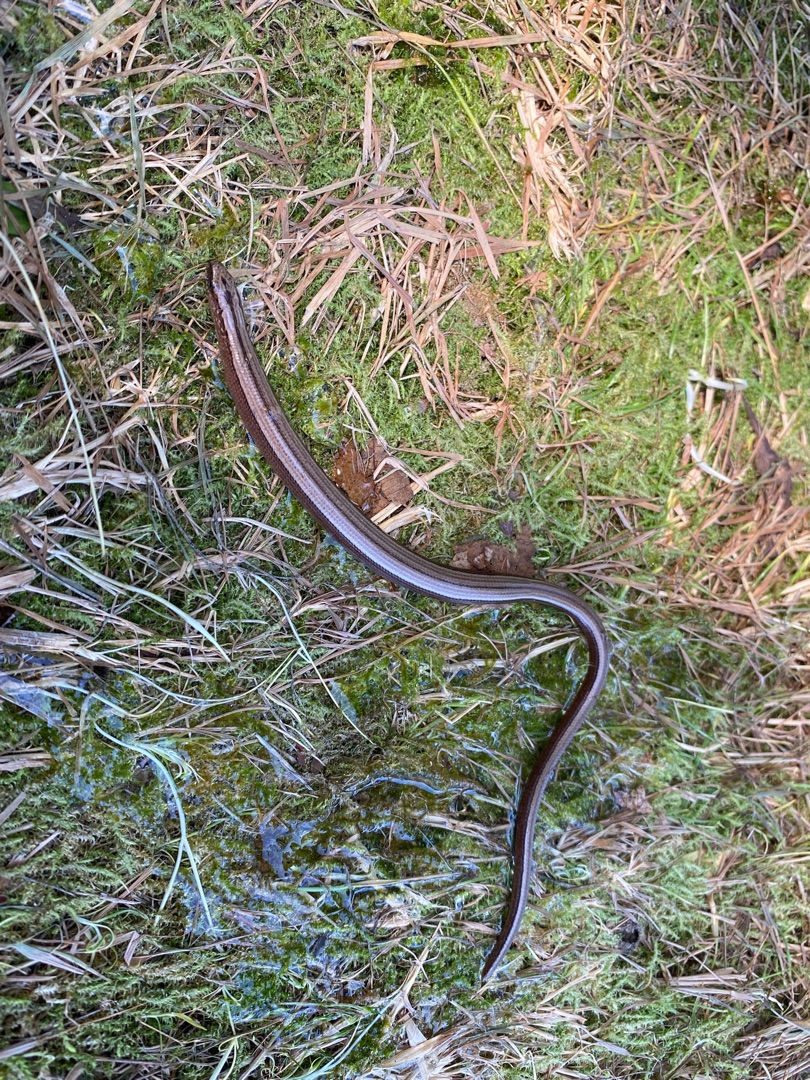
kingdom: Animalia
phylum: Chordata
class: Squamata
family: Anguidae
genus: Anguis
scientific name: Anguis fragilis
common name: Stålorm
